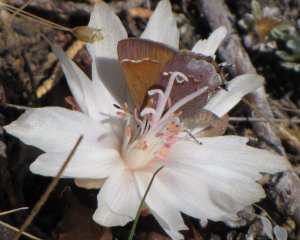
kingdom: Animalia
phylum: Arthropoda
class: Insecta
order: Lepidoptera
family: Lycaenidae
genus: Mitoura
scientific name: Mitoura gryneus
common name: Juniper Hairstreak
